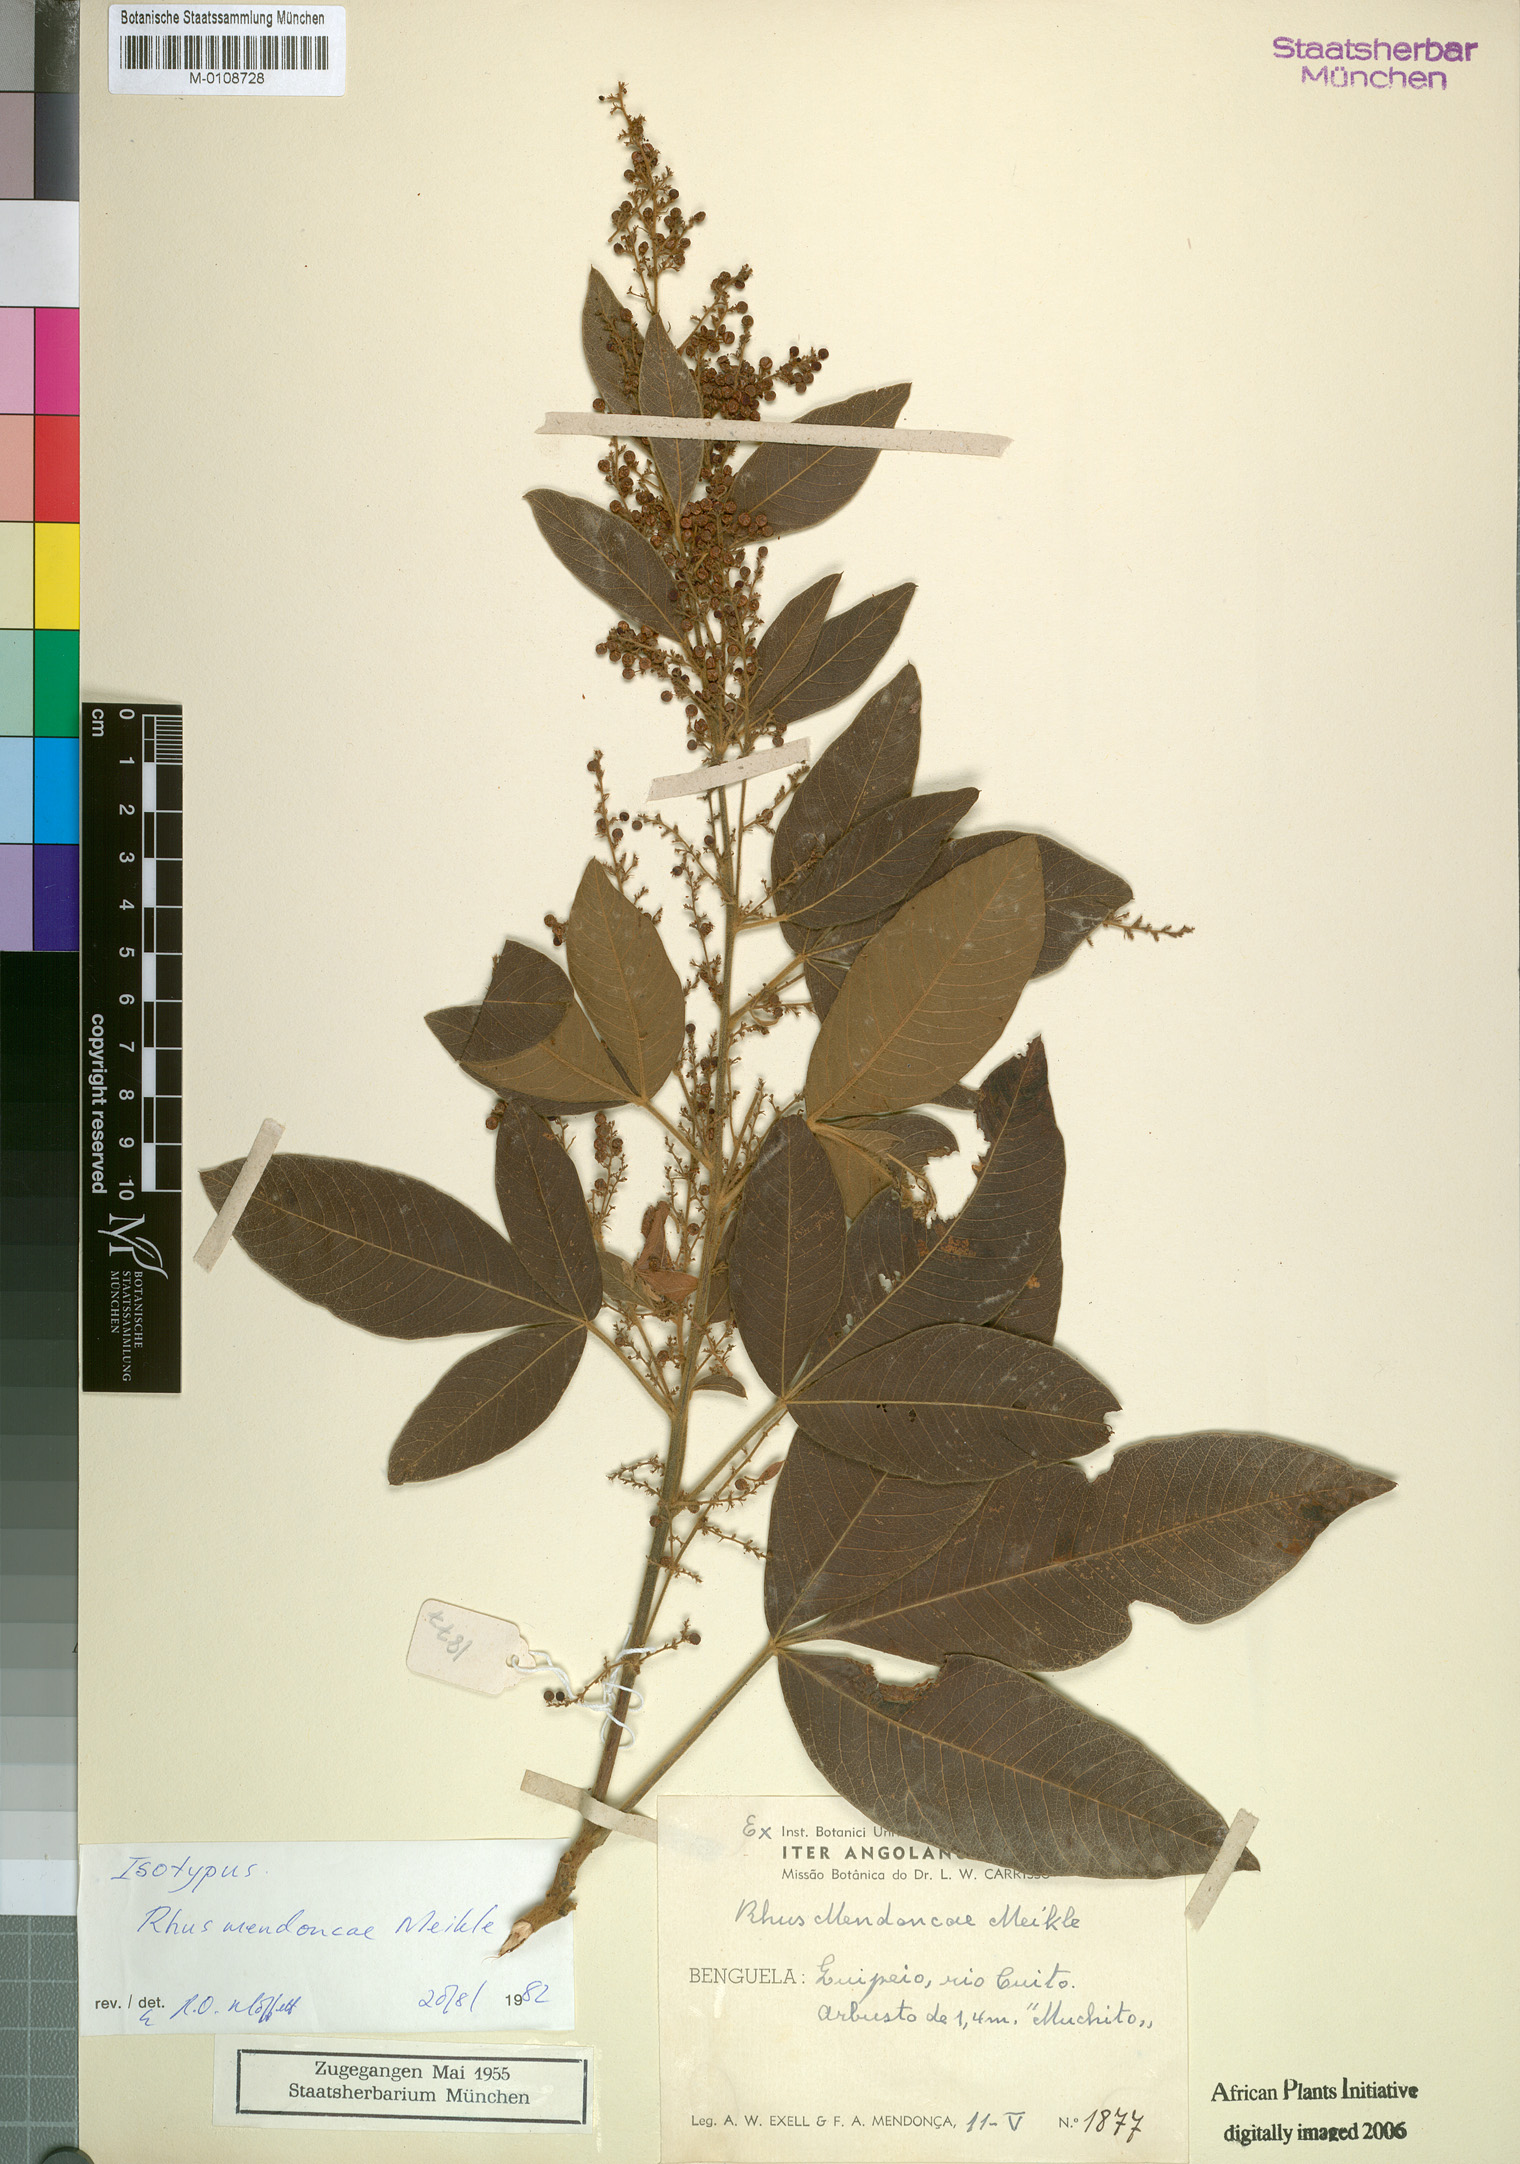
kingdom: Plantae
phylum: Tracheophyta
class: Magnoliopsida
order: Sapindales
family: Anacardiaceae
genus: Searsia
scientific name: Searsia anchietae
